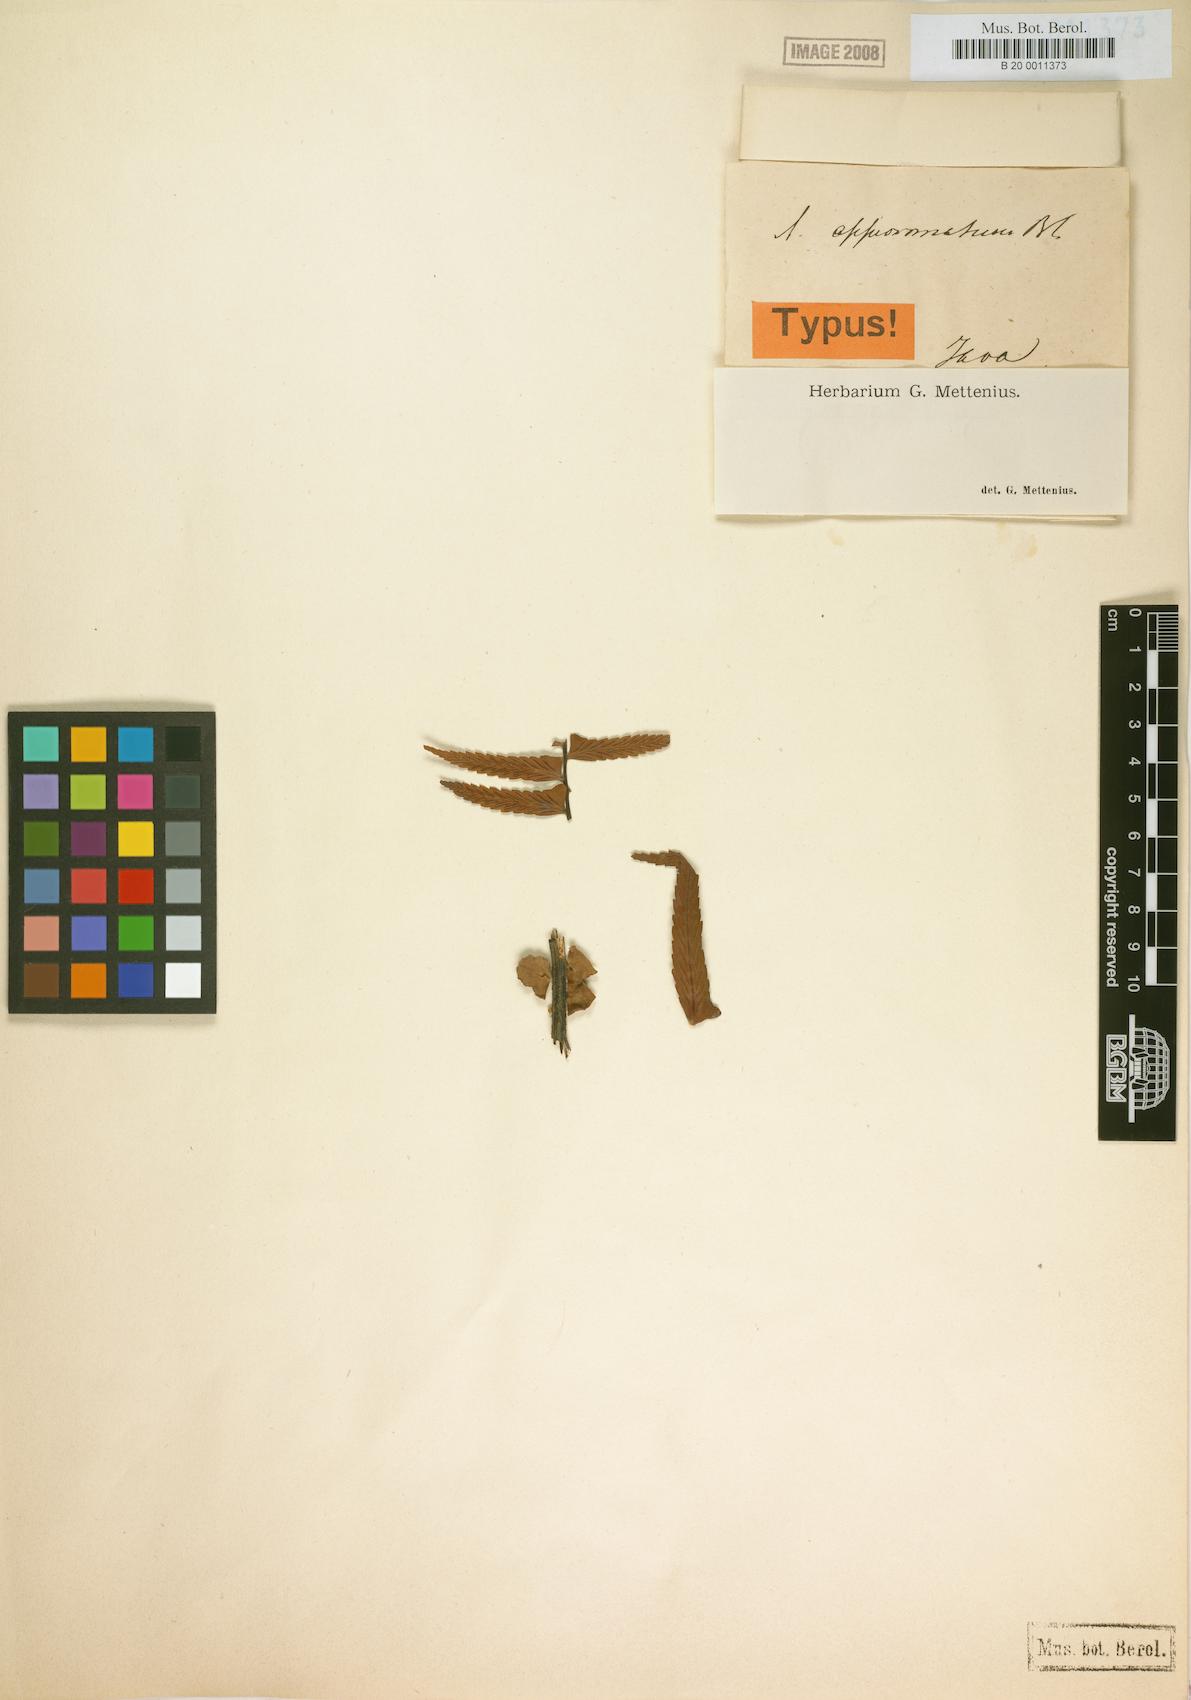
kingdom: Plantae
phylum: Tracheophyta
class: Polypodiopsida
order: Polypodiales
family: Aspleniaceae
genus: Asplenium
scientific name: Asplenium pellucidum
